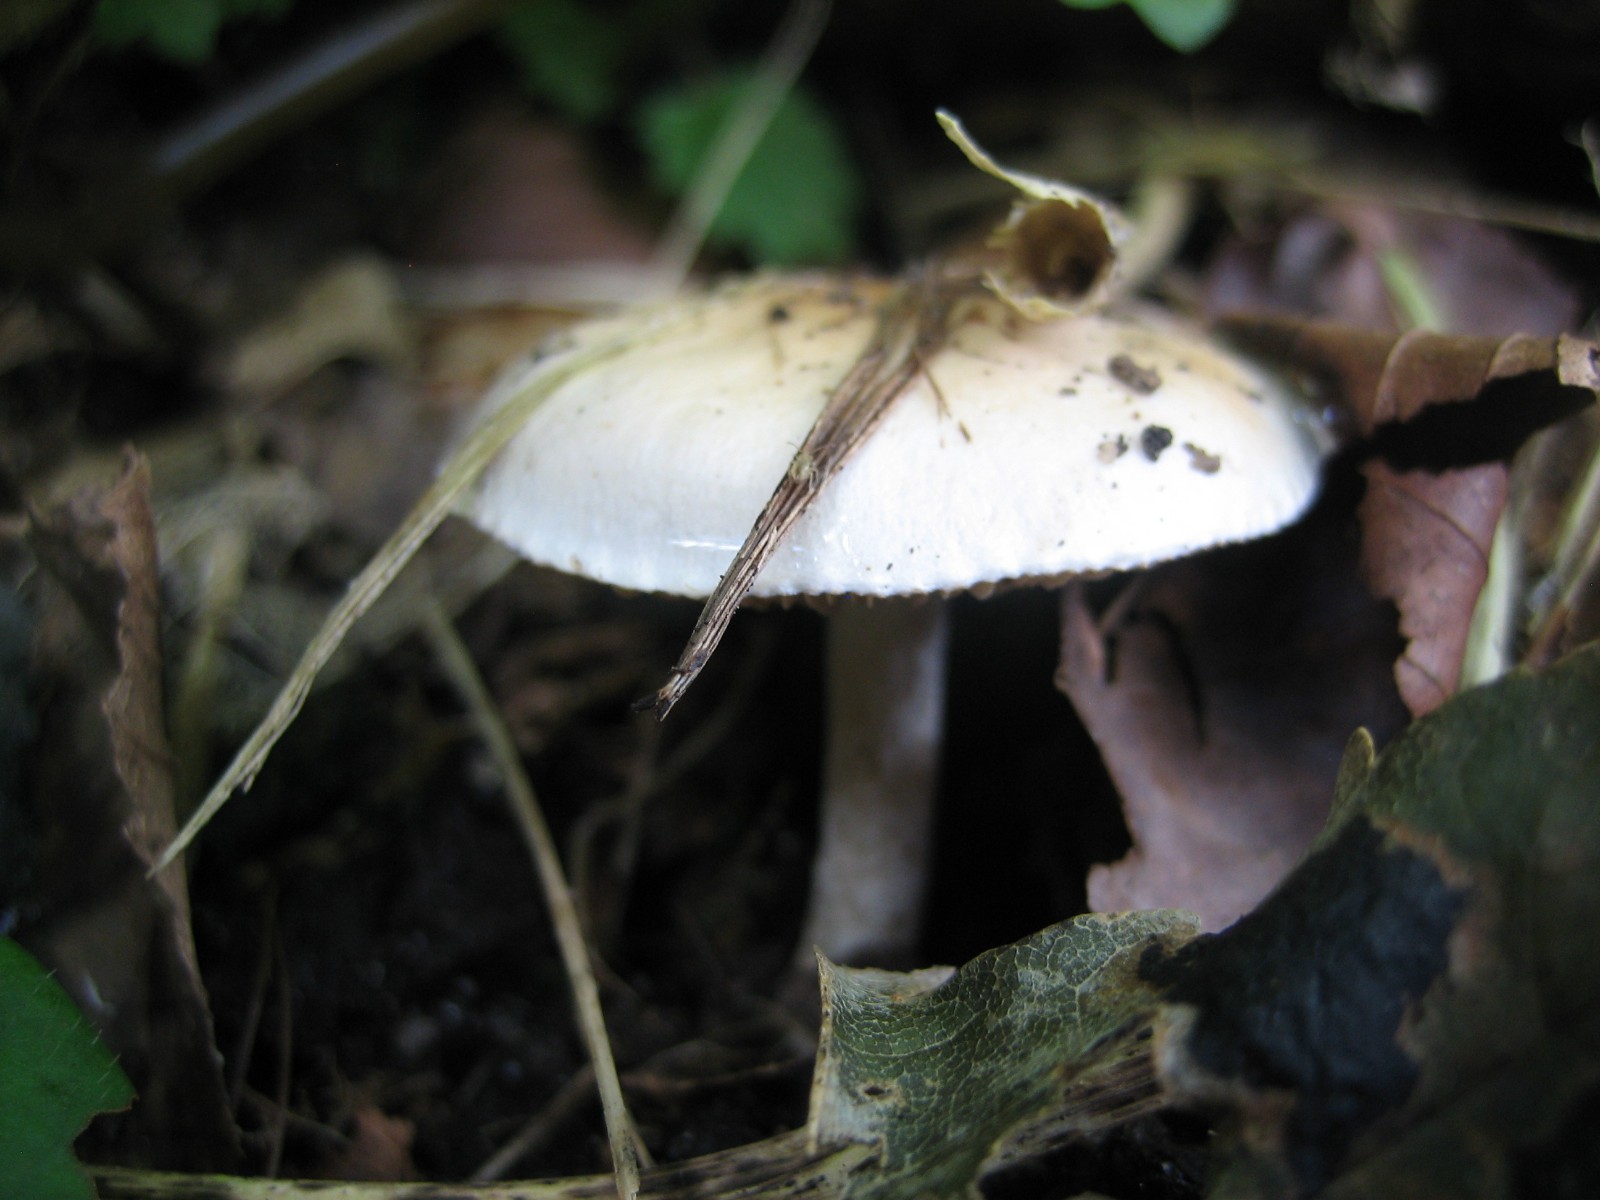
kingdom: Fungi
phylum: Basidiomycota
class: Agaricomycetes
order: Agaricales
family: Hymenogastraceae
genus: Hebeloma
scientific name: Hebeloma
